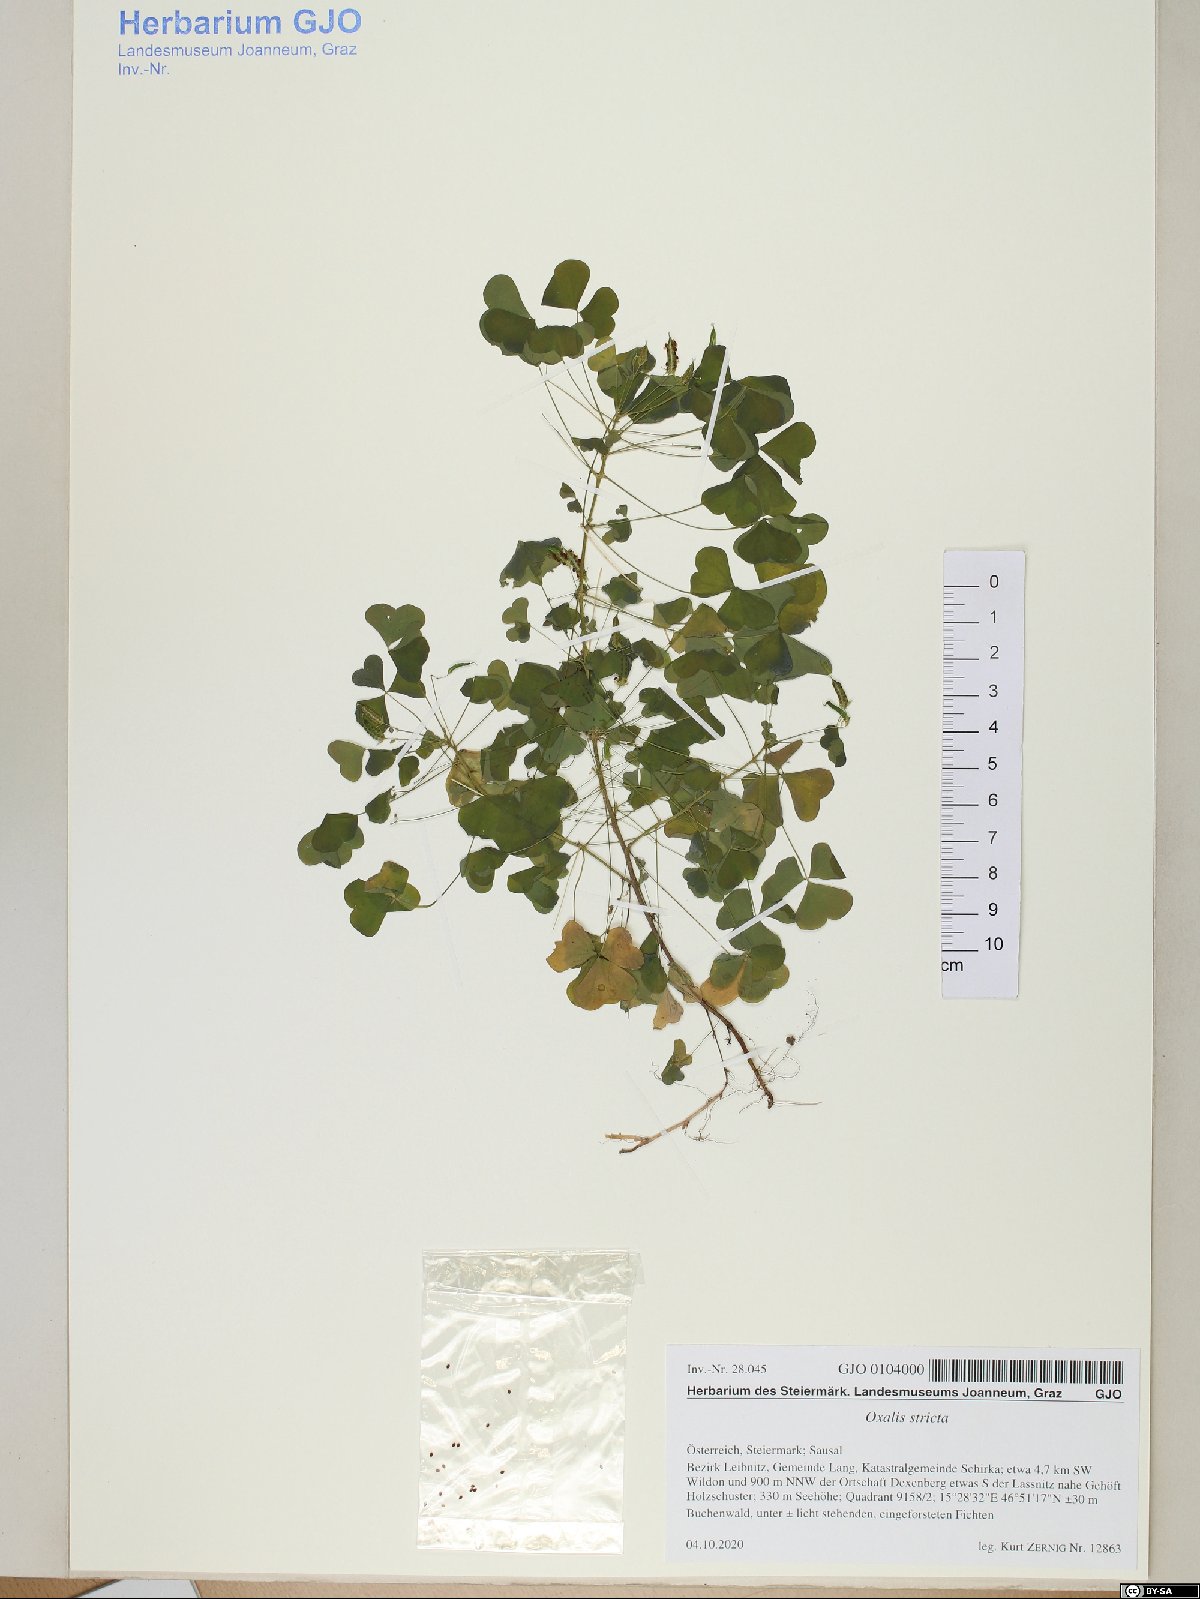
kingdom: Plantae
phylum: Tracheophyta
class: Magnoliopsida
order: Oxalidales
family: Oxalidaceae
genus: Oxalis
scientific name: Oxalis stricta
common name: Upright yellow-sorrel
